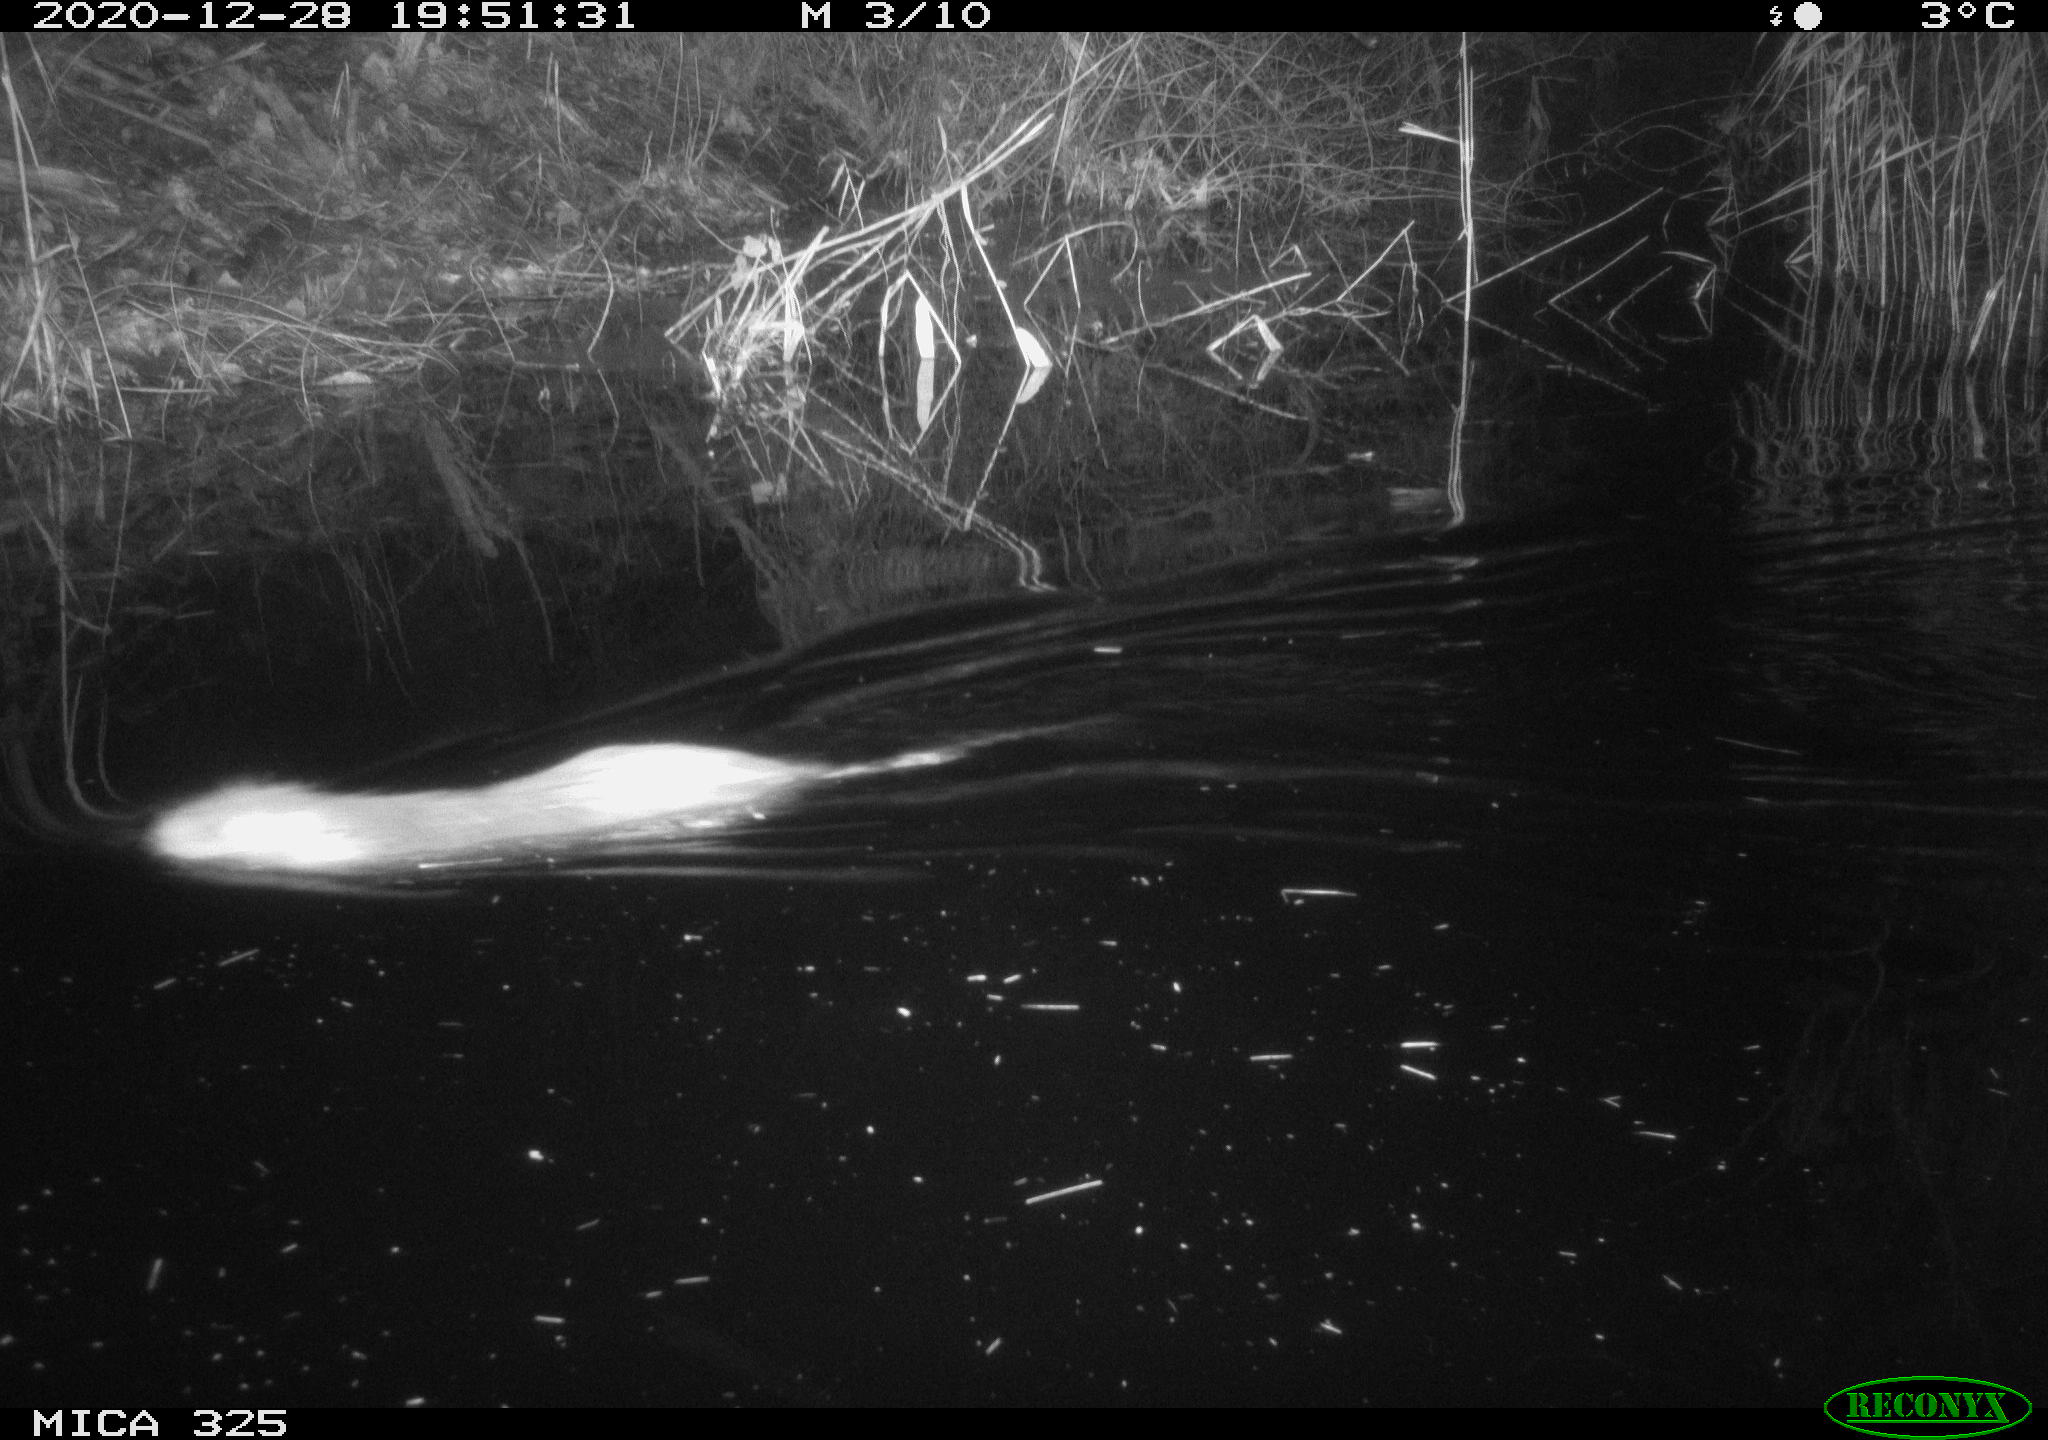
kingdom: Animalia
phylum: Chordata
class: Mammalia
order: Rodentia
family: Myocastoridae
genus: Myocastor
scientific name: Myocastor coypus
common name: Coypu
